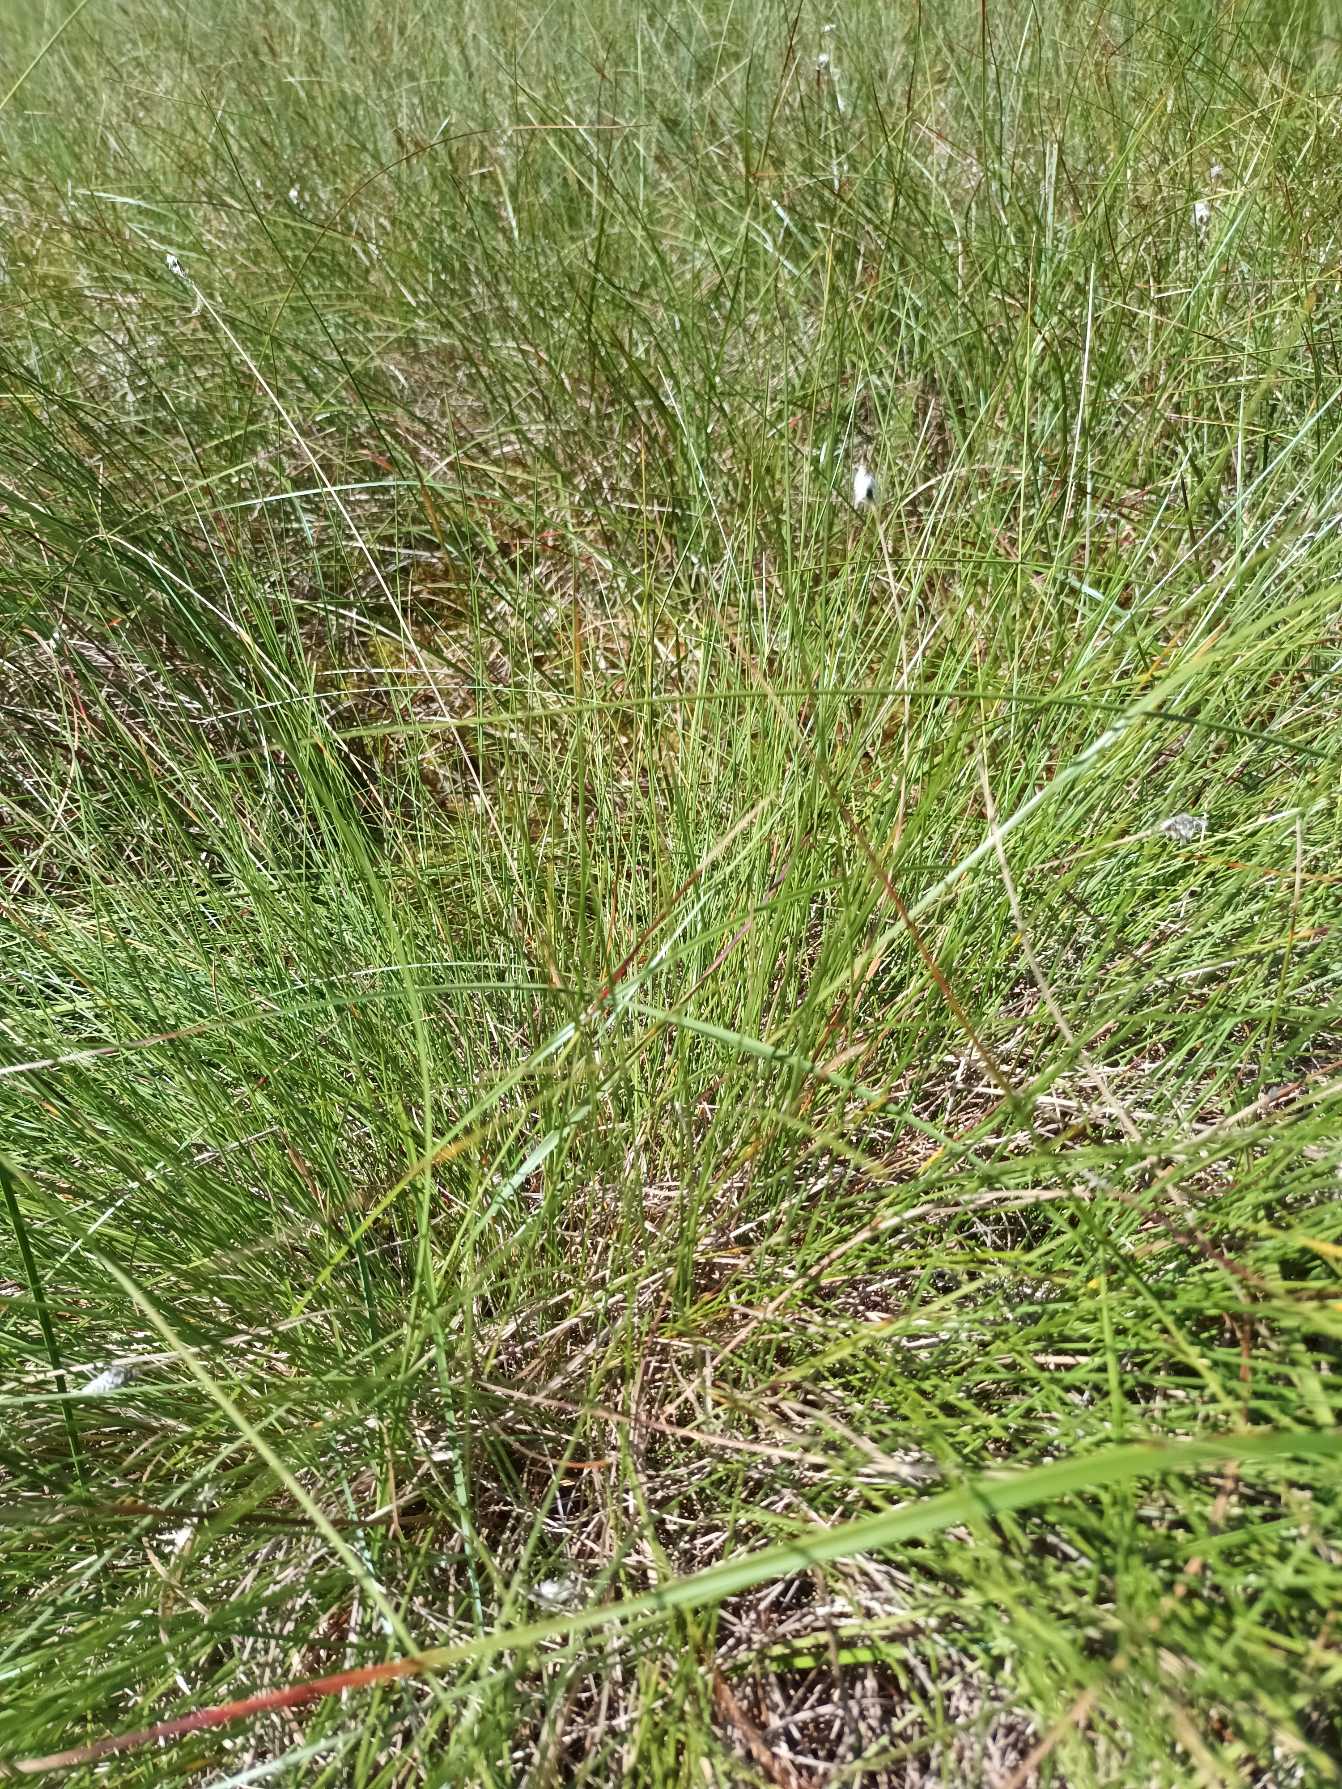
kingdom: Plantae
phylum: Tracheophyta
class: Liliopsida
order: Poales
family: Cyperaceae
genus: Eriophorum
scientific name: Eriophorum vaginatum
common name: Tue-kæruld
